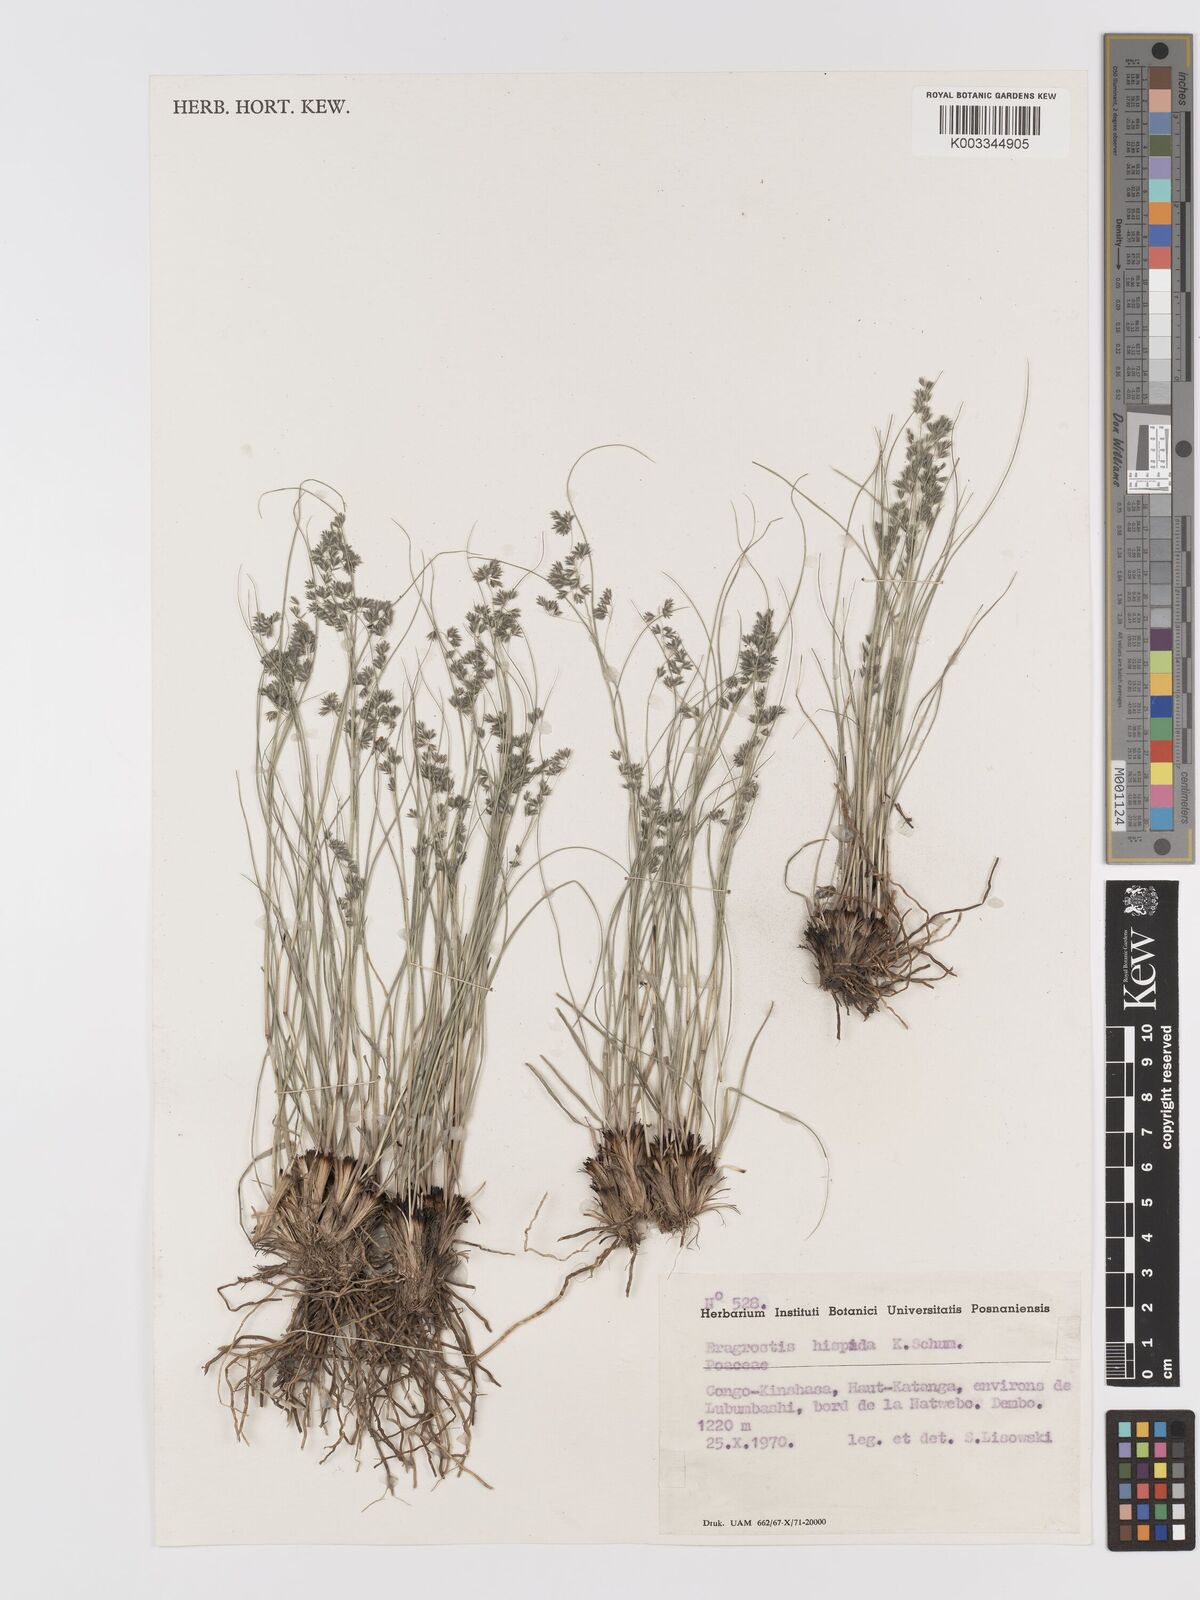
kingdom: Plantae
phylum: Tracheophyta
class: Liliopsida
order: Poales
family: Poaceae
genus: Eragrostis
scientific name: Eragrostis hispida
